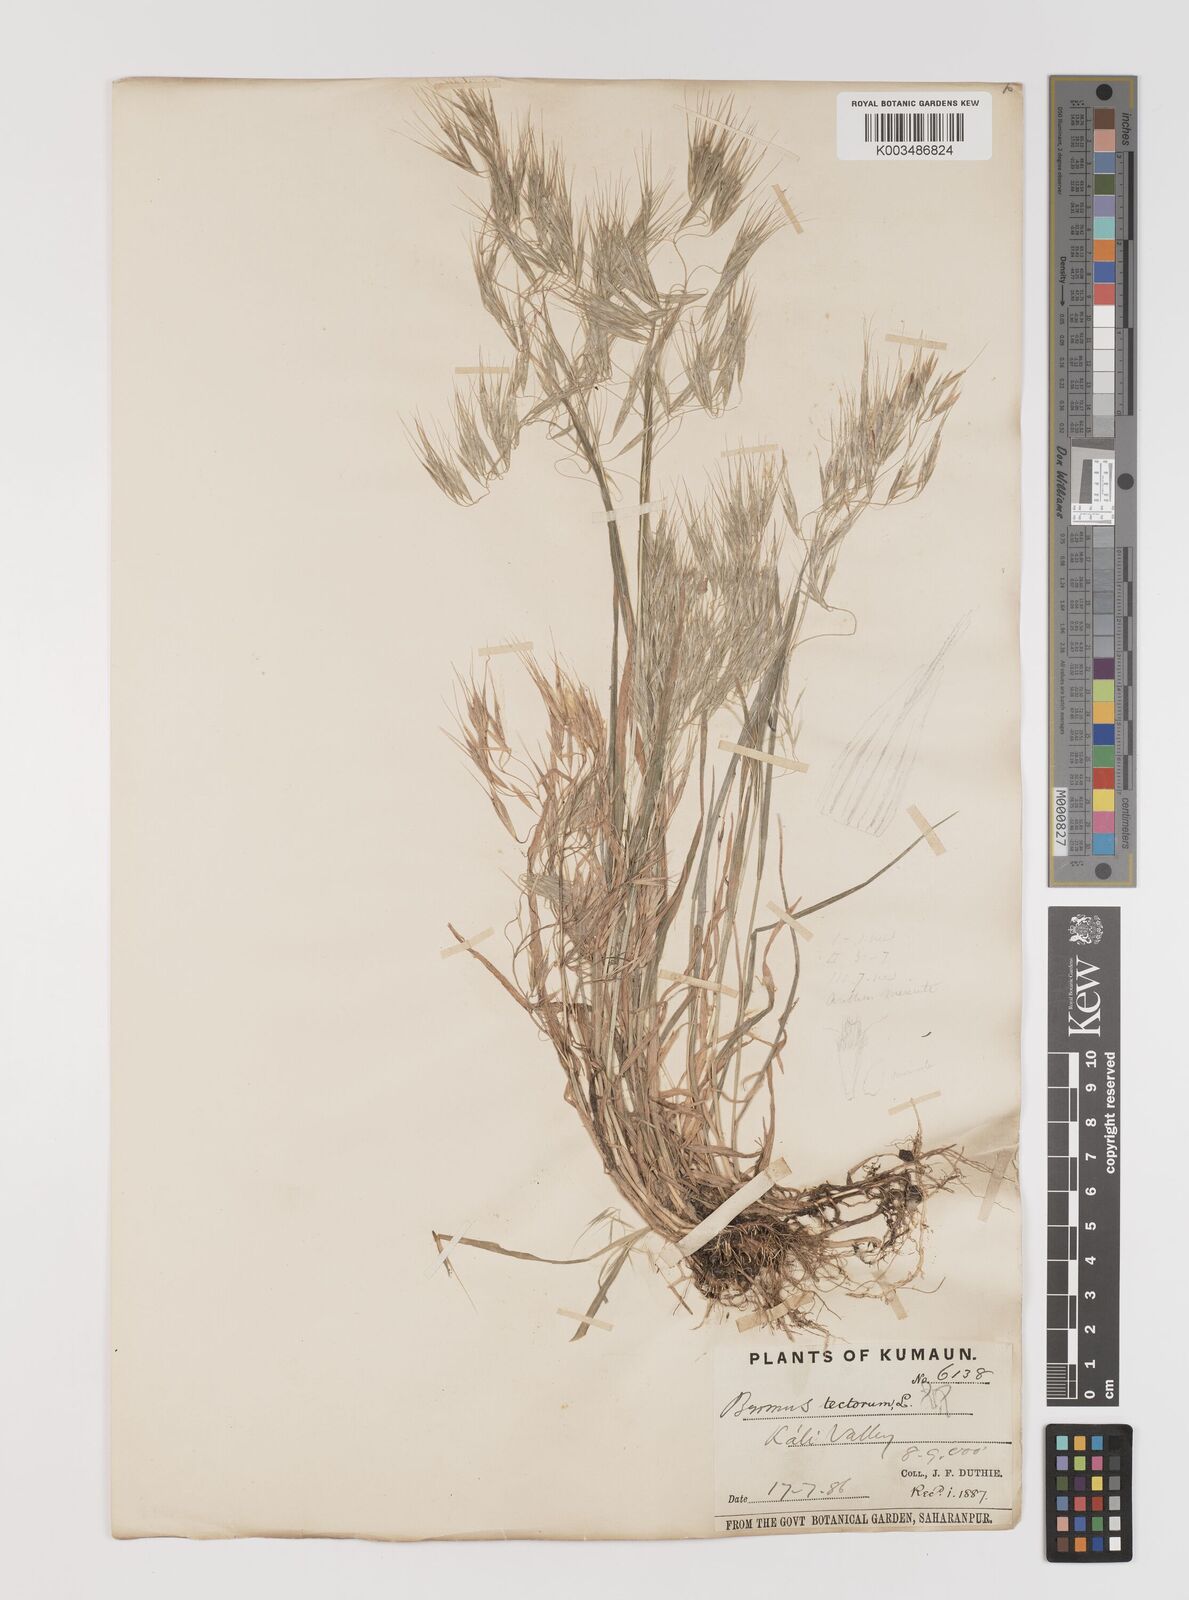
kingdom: Plantae
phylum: Tracheophyta
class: Liliopsida
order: Poales
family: Poaceae
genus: Bromus
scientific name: Bromus tectorum
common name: Cheatgrass
